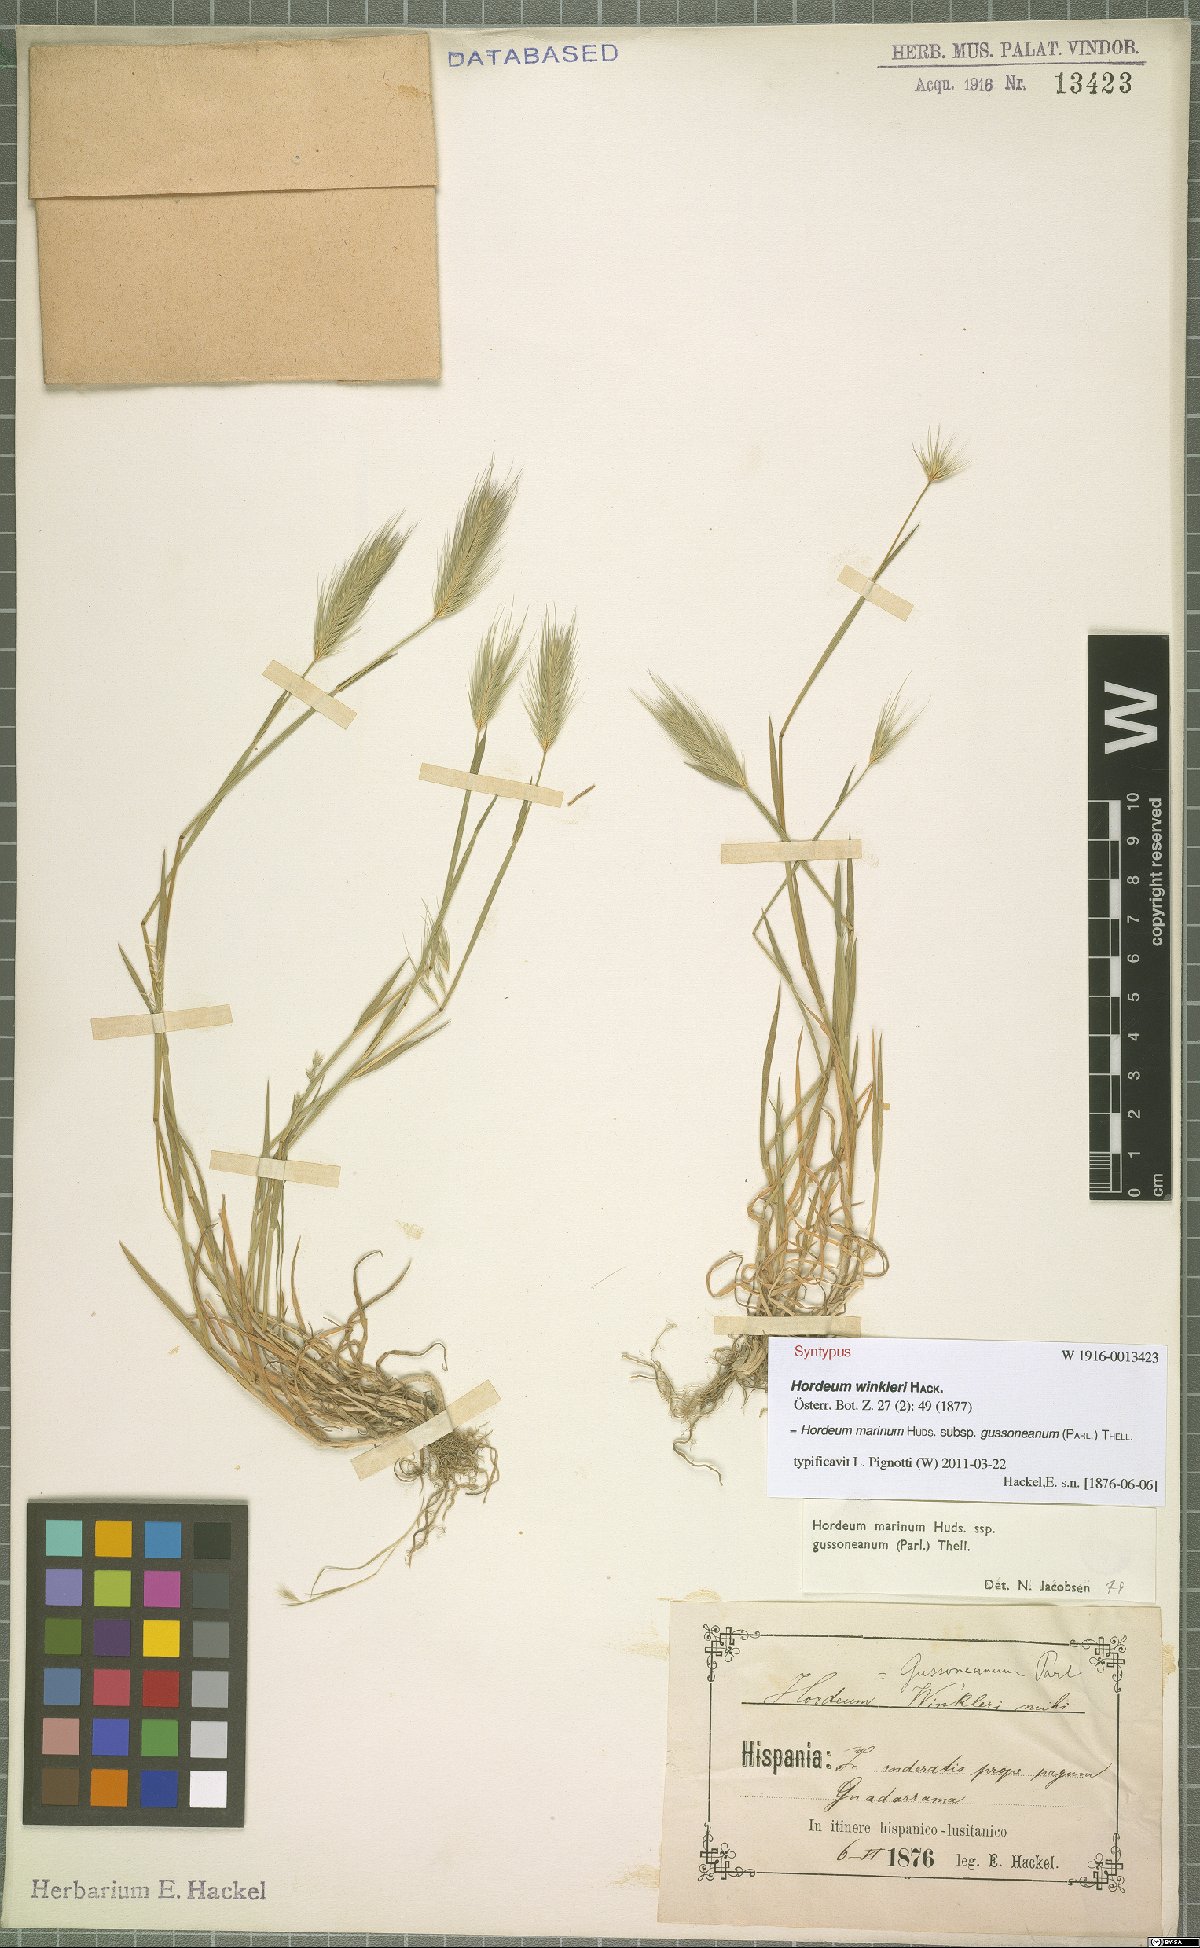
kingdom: Plantae
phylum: Tracheophyta
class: Liliopsida
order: Poales
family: Poaceae
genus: Hordeum
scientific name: Hordeum marinum
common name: Sea barley
